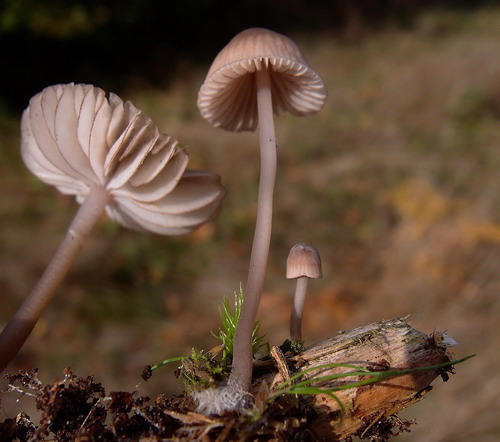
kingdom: Fungi
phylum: Basidiomycota
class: Agaricomycetes
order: Agaricales
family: Mycenaceae
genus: Mycena
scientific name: Mycena rubromarginata
